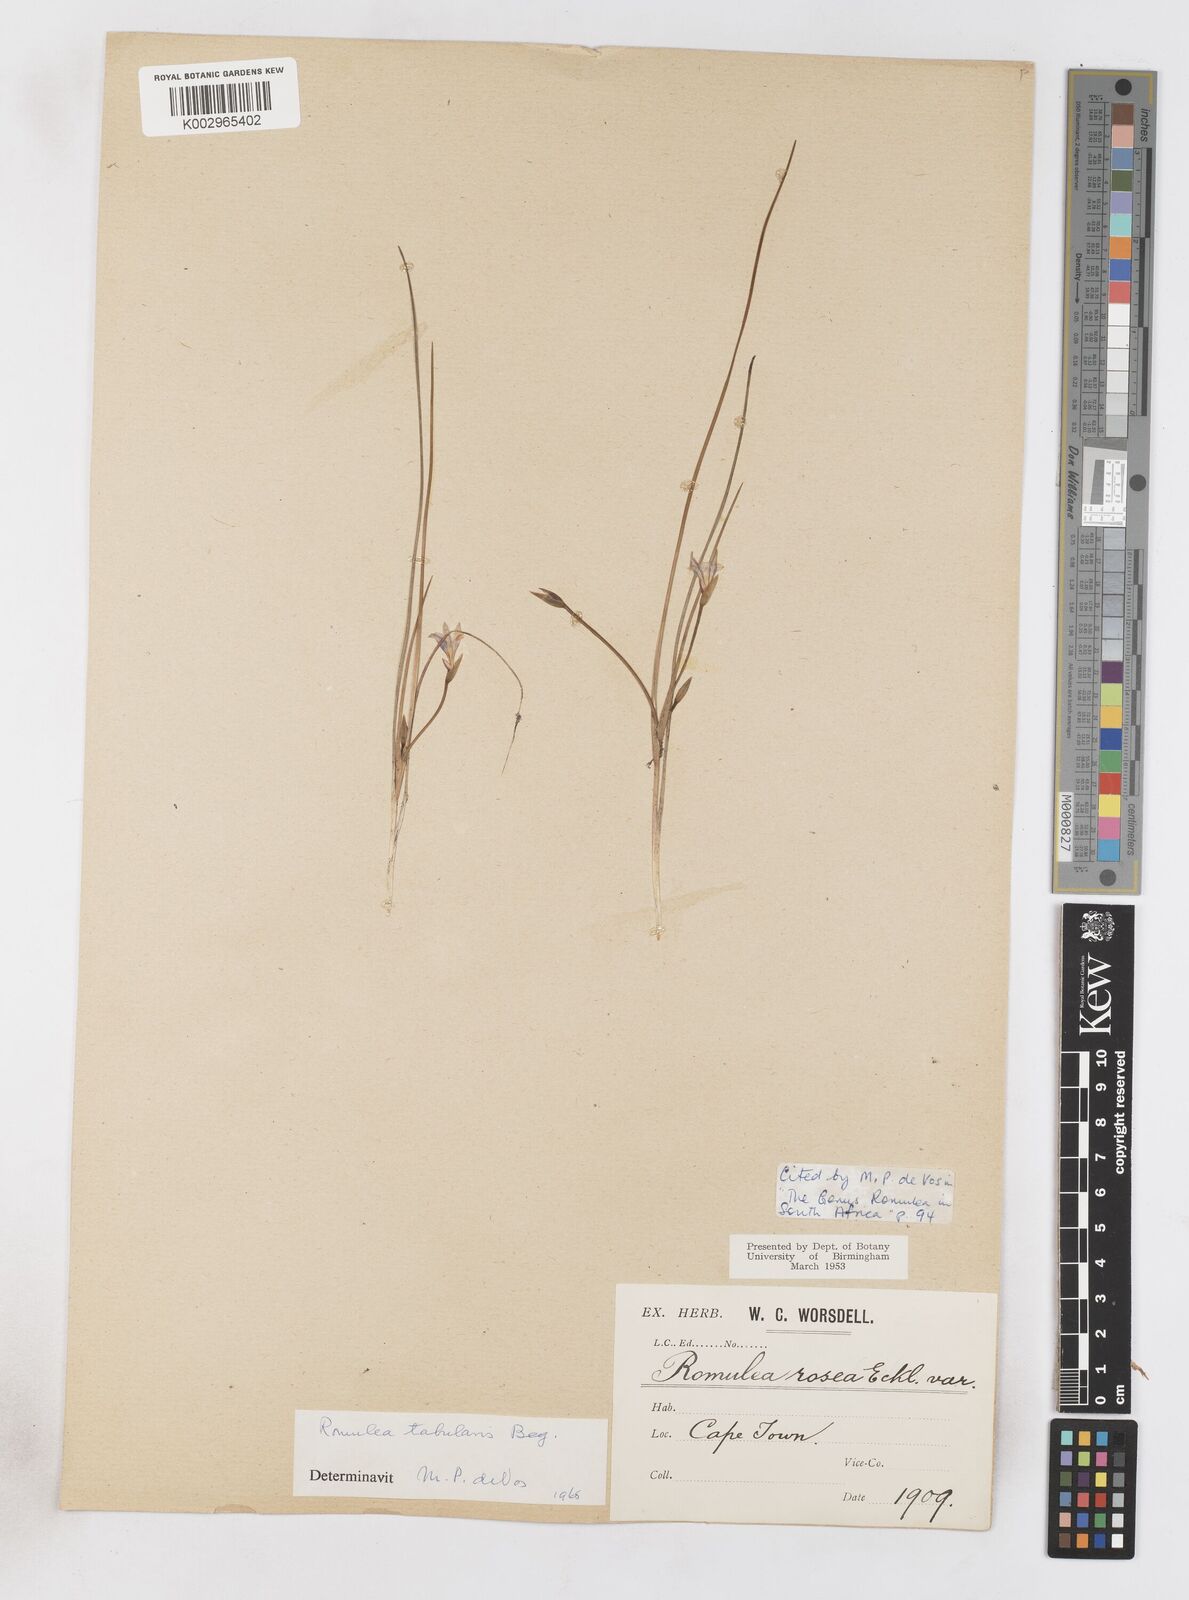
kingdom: Plantae
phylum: Tracheophyta
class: Liliopsida
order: Asparagales
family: Iridaceae
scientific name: Iridaceae
